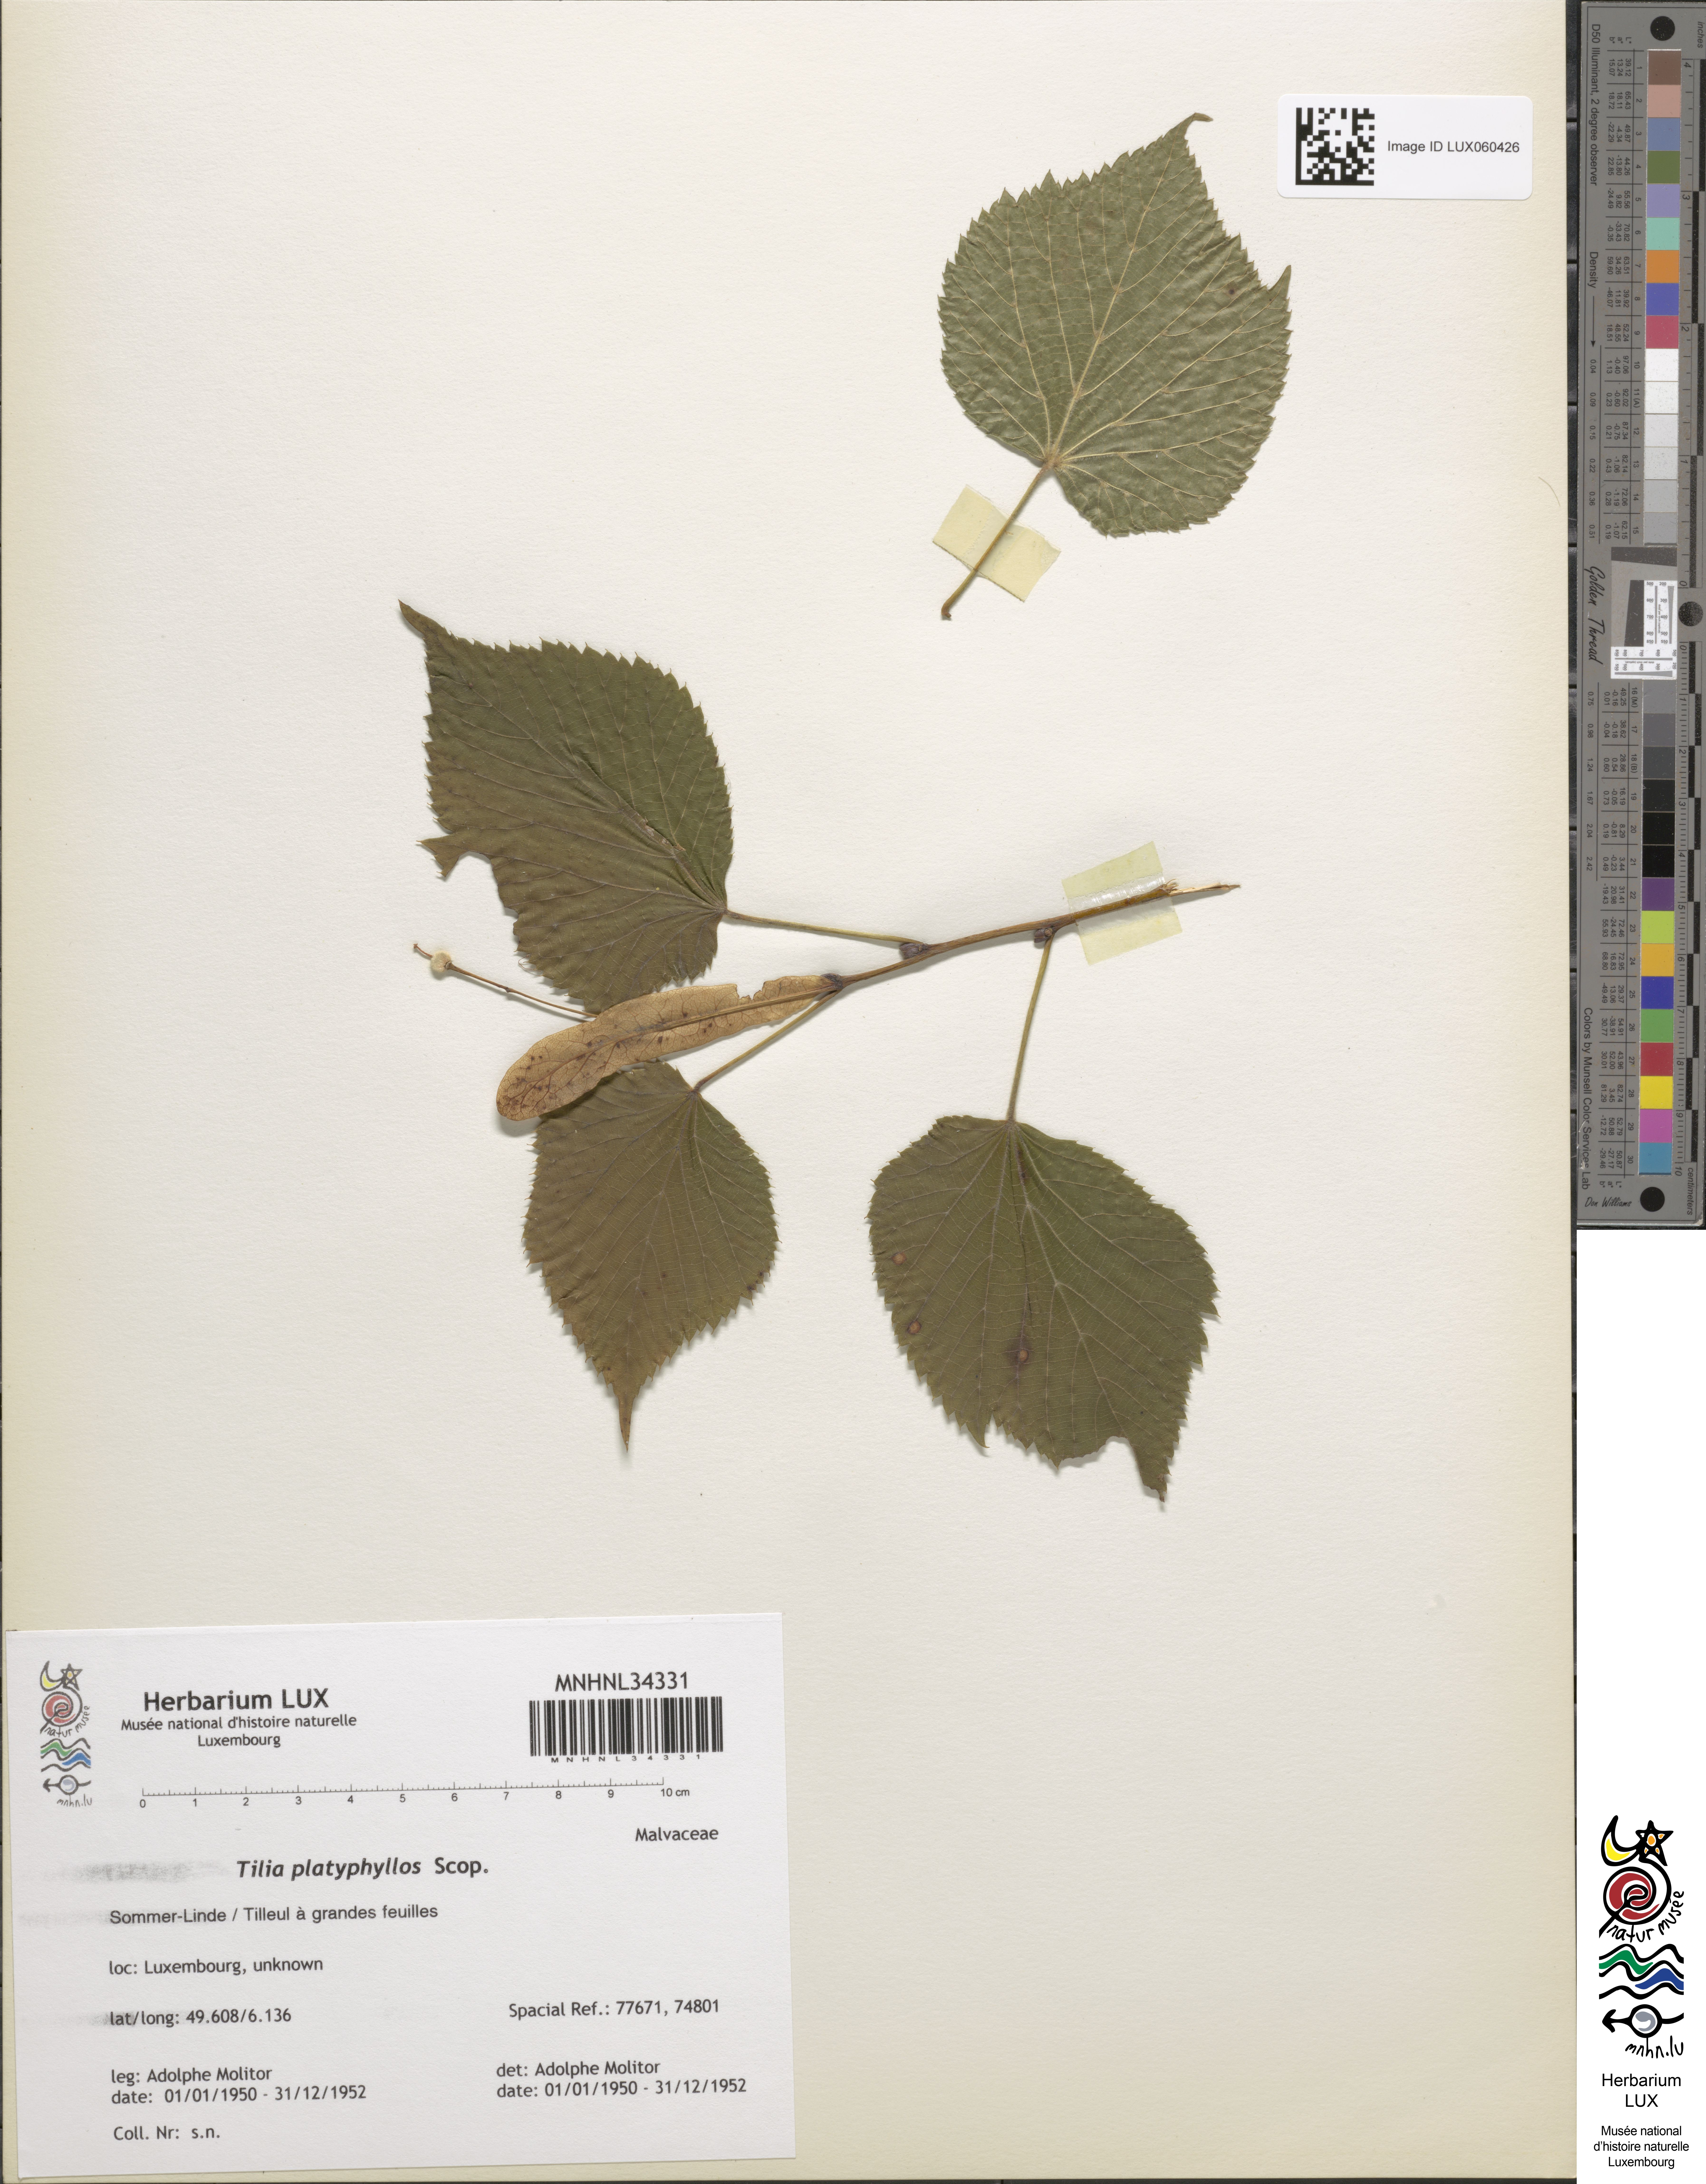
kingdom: Plantae
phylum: Tracheophyta
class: Magnoliopsida
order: Malvales
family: Malvaceae
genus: Tilia
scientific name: Tilia platyphyllos
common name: Large-leaved lime
